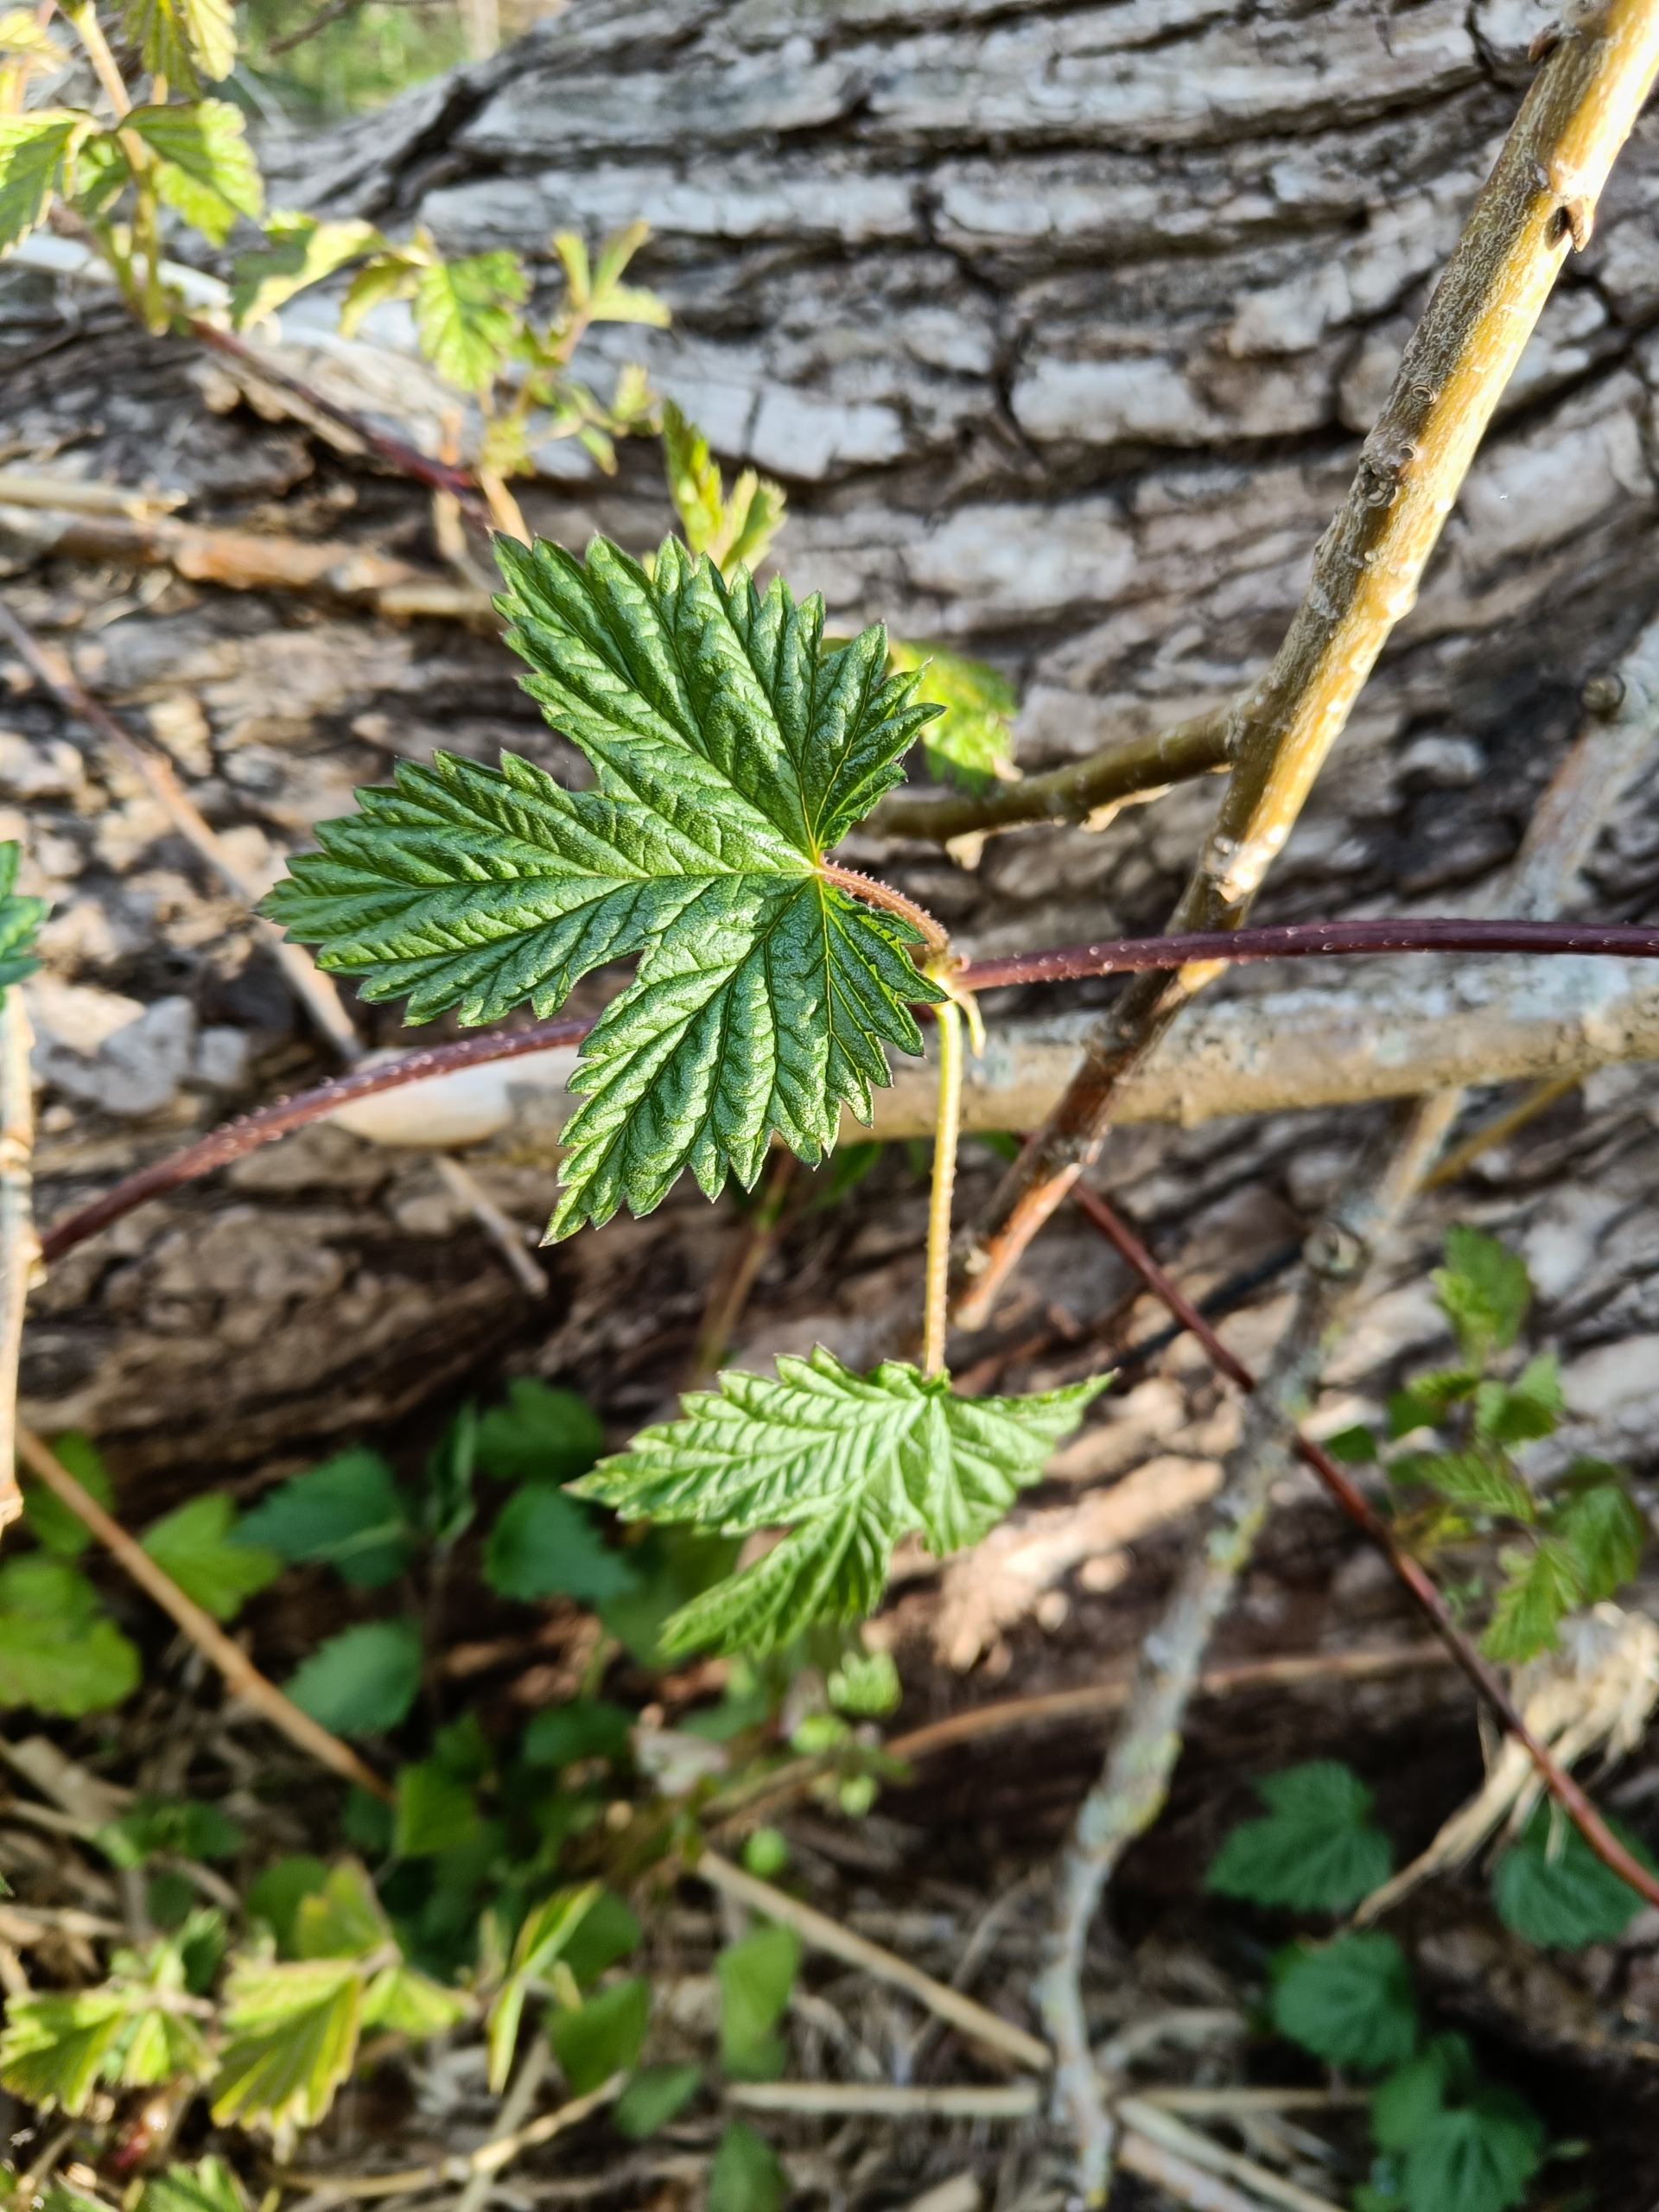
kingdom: Plantae
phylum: Tracheophyta
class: Magnoliopsida
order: Rosales
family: Cannabaceae
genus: Humulus
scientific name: Humulus lupulus
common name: Humle
